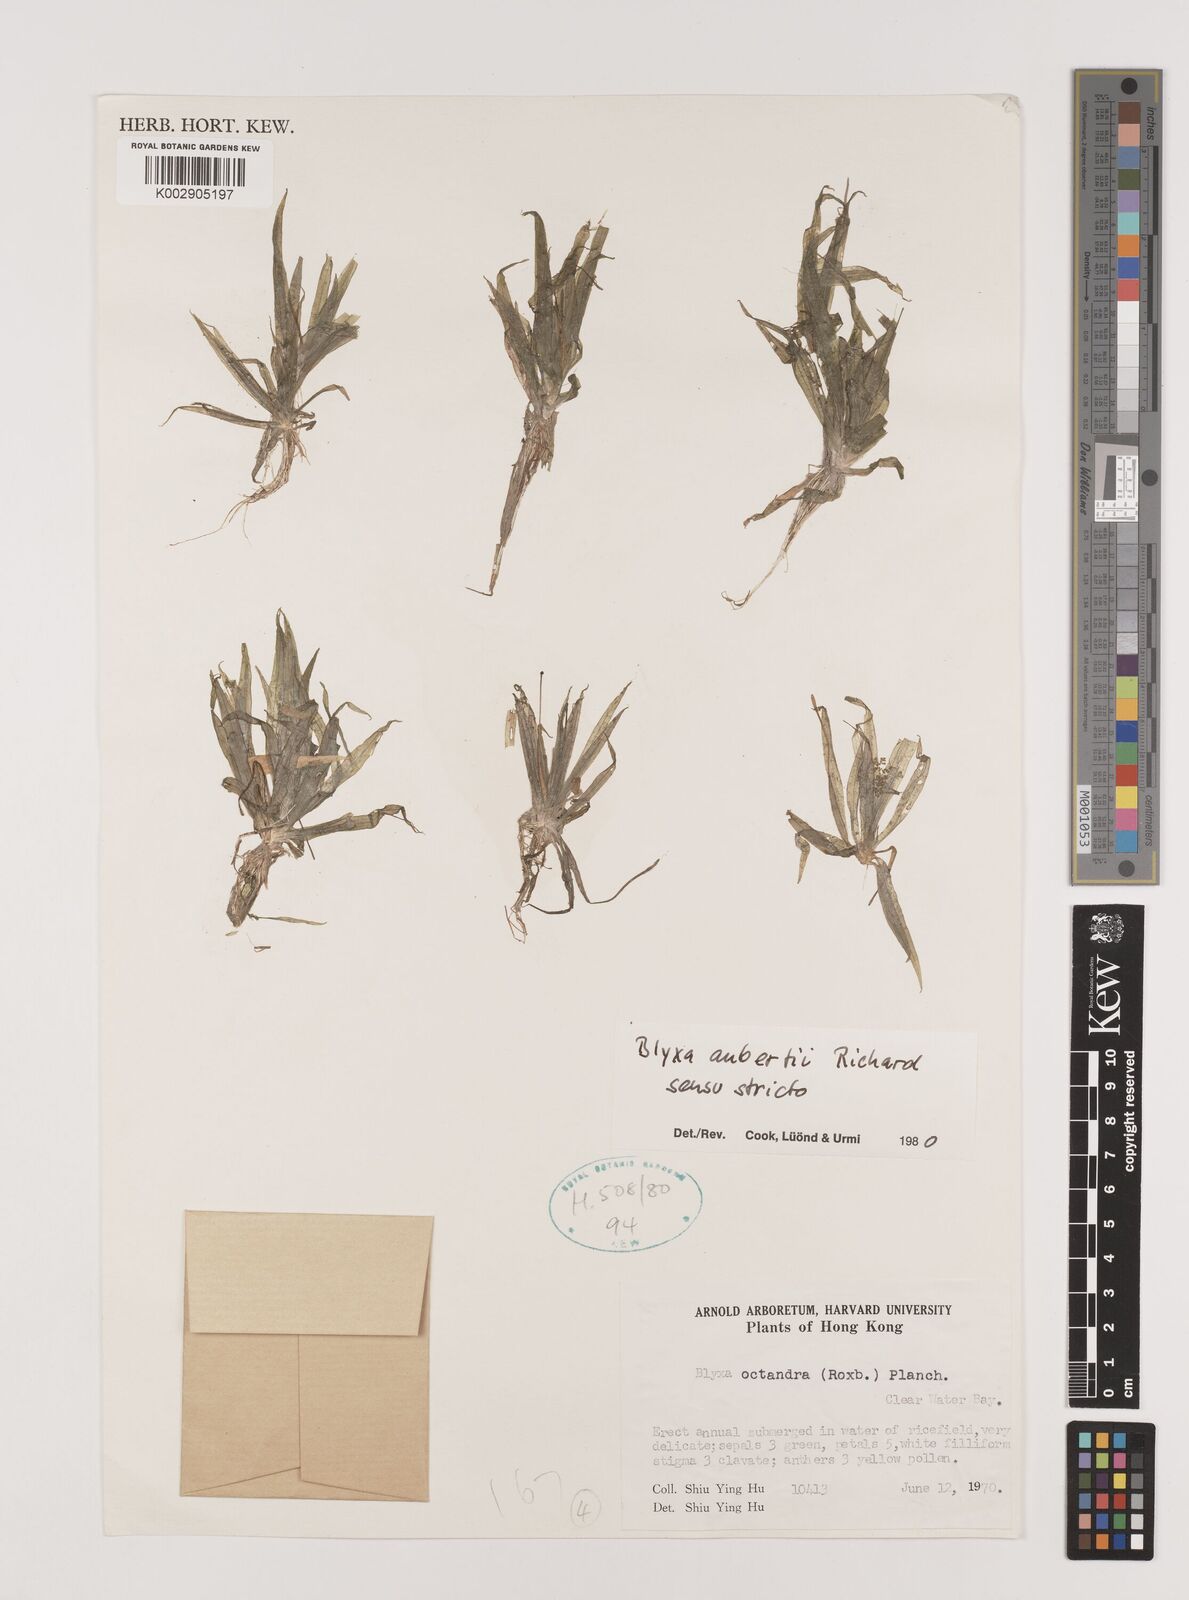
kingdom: Plantae
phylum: Tracheophyta
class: Liliopsida
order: Alismatales
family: Hydrocharitaceae
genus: Blyxa
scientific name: Blyxa aubertii
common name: Roundfruit blyxa
